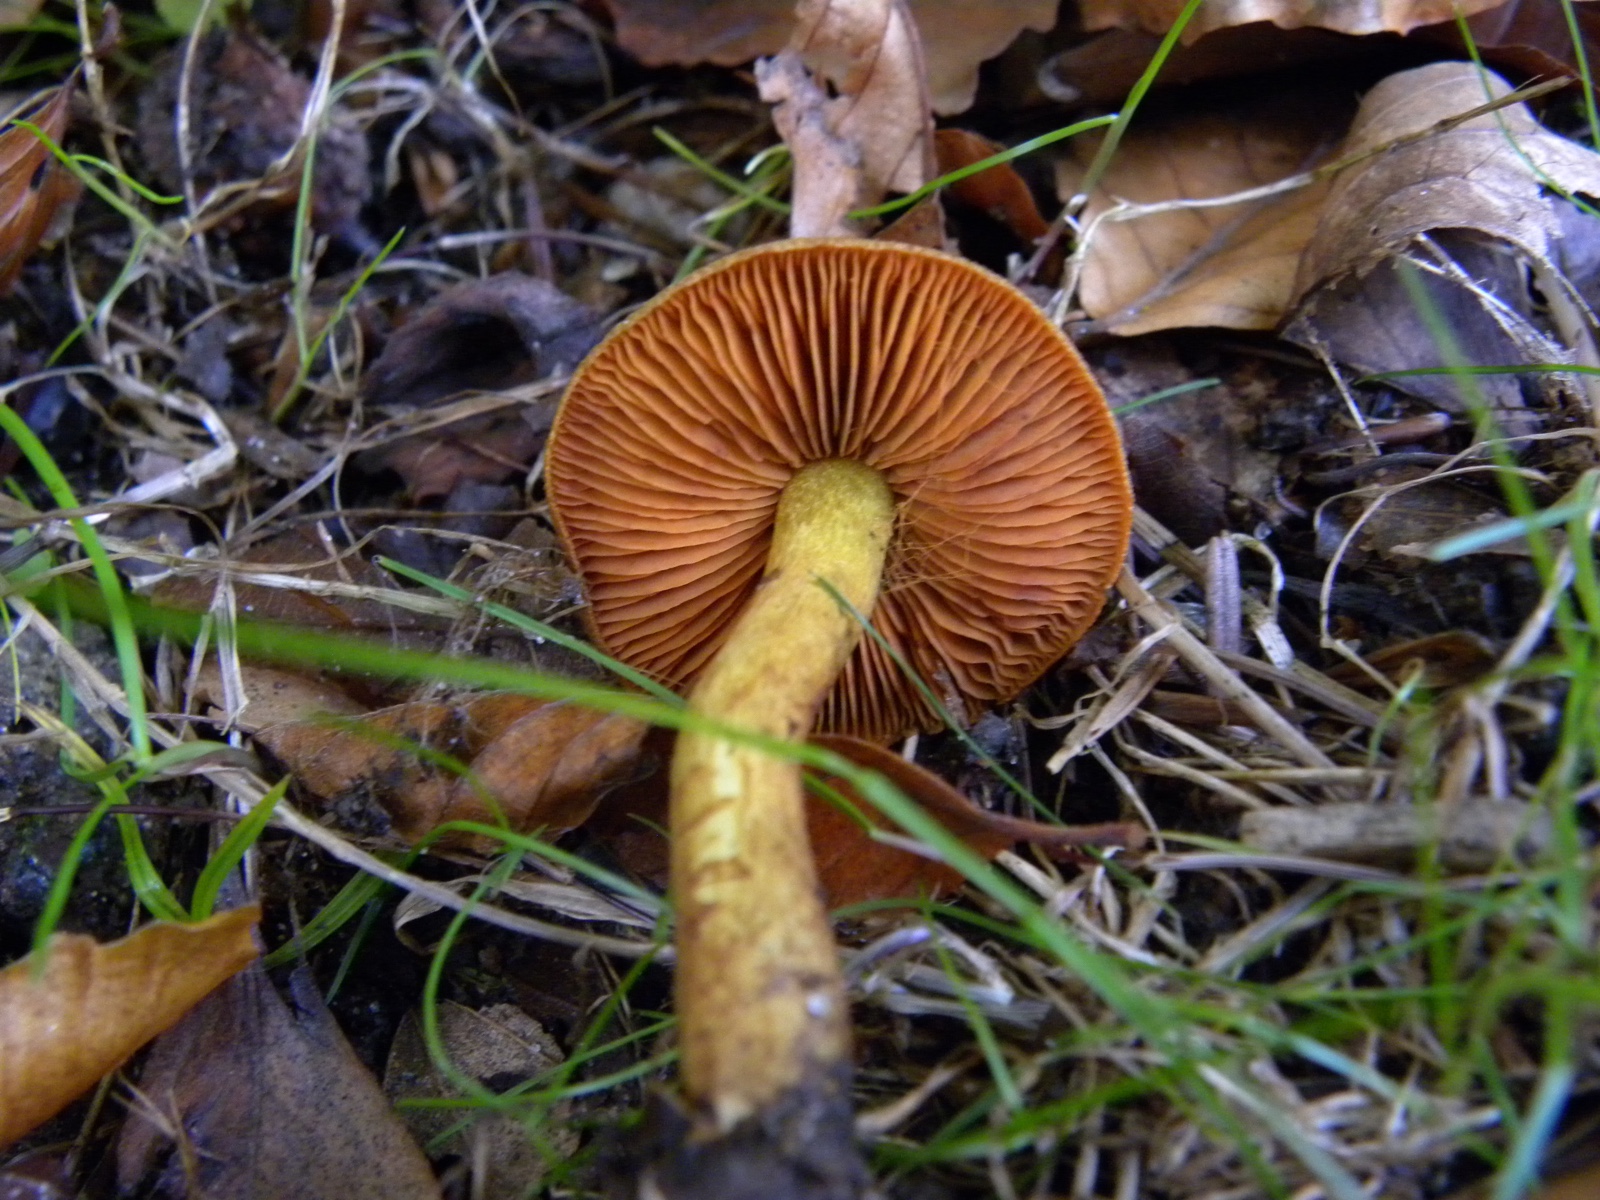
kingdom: Fungi
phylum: Basidiomycota
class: Agaricomycetes
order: Agaricales
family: Cortinariaceae
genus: Cortinarius
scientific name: Cortinarius cinnamomeus
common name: kanel-slørhat
